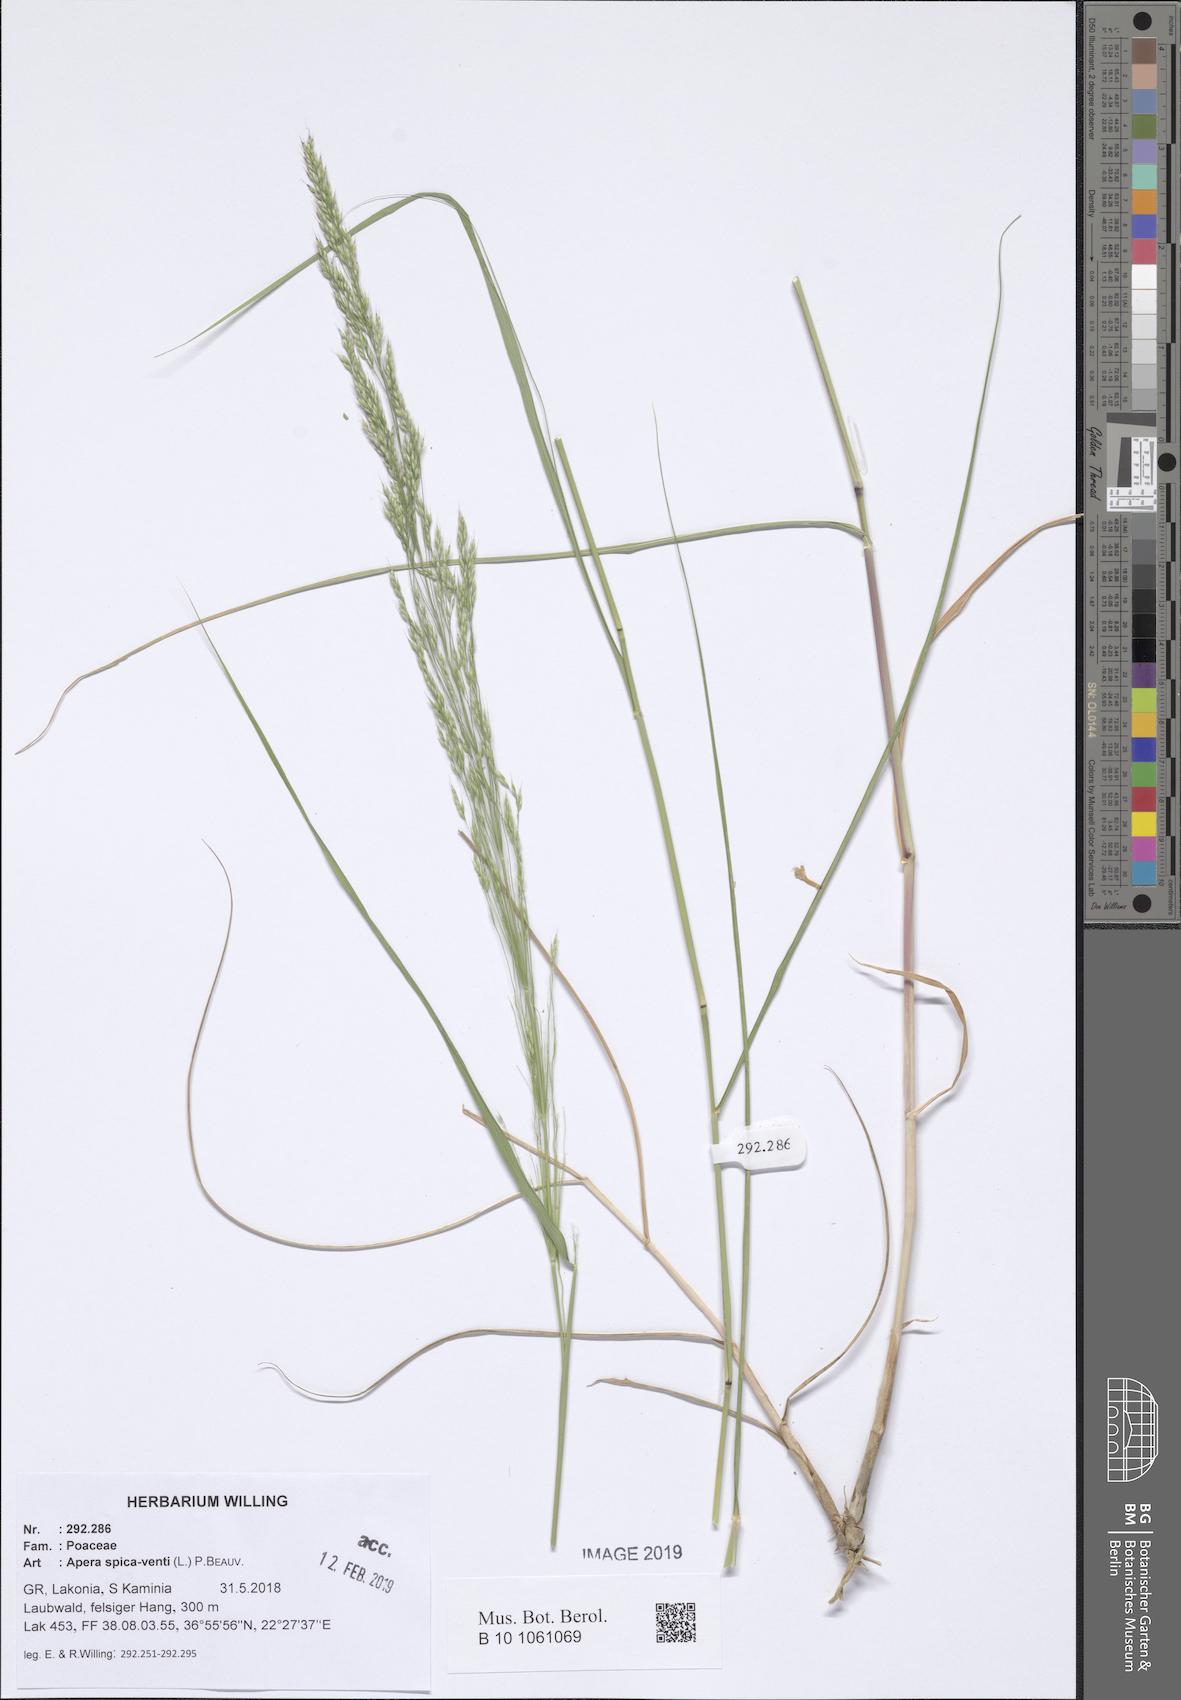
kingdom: Plantae
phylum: Tracheophyta
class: Liliopsida
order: Poales
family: Poaceae
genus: Apera
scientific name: Apera spica-venti
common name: Loose silky-bent
